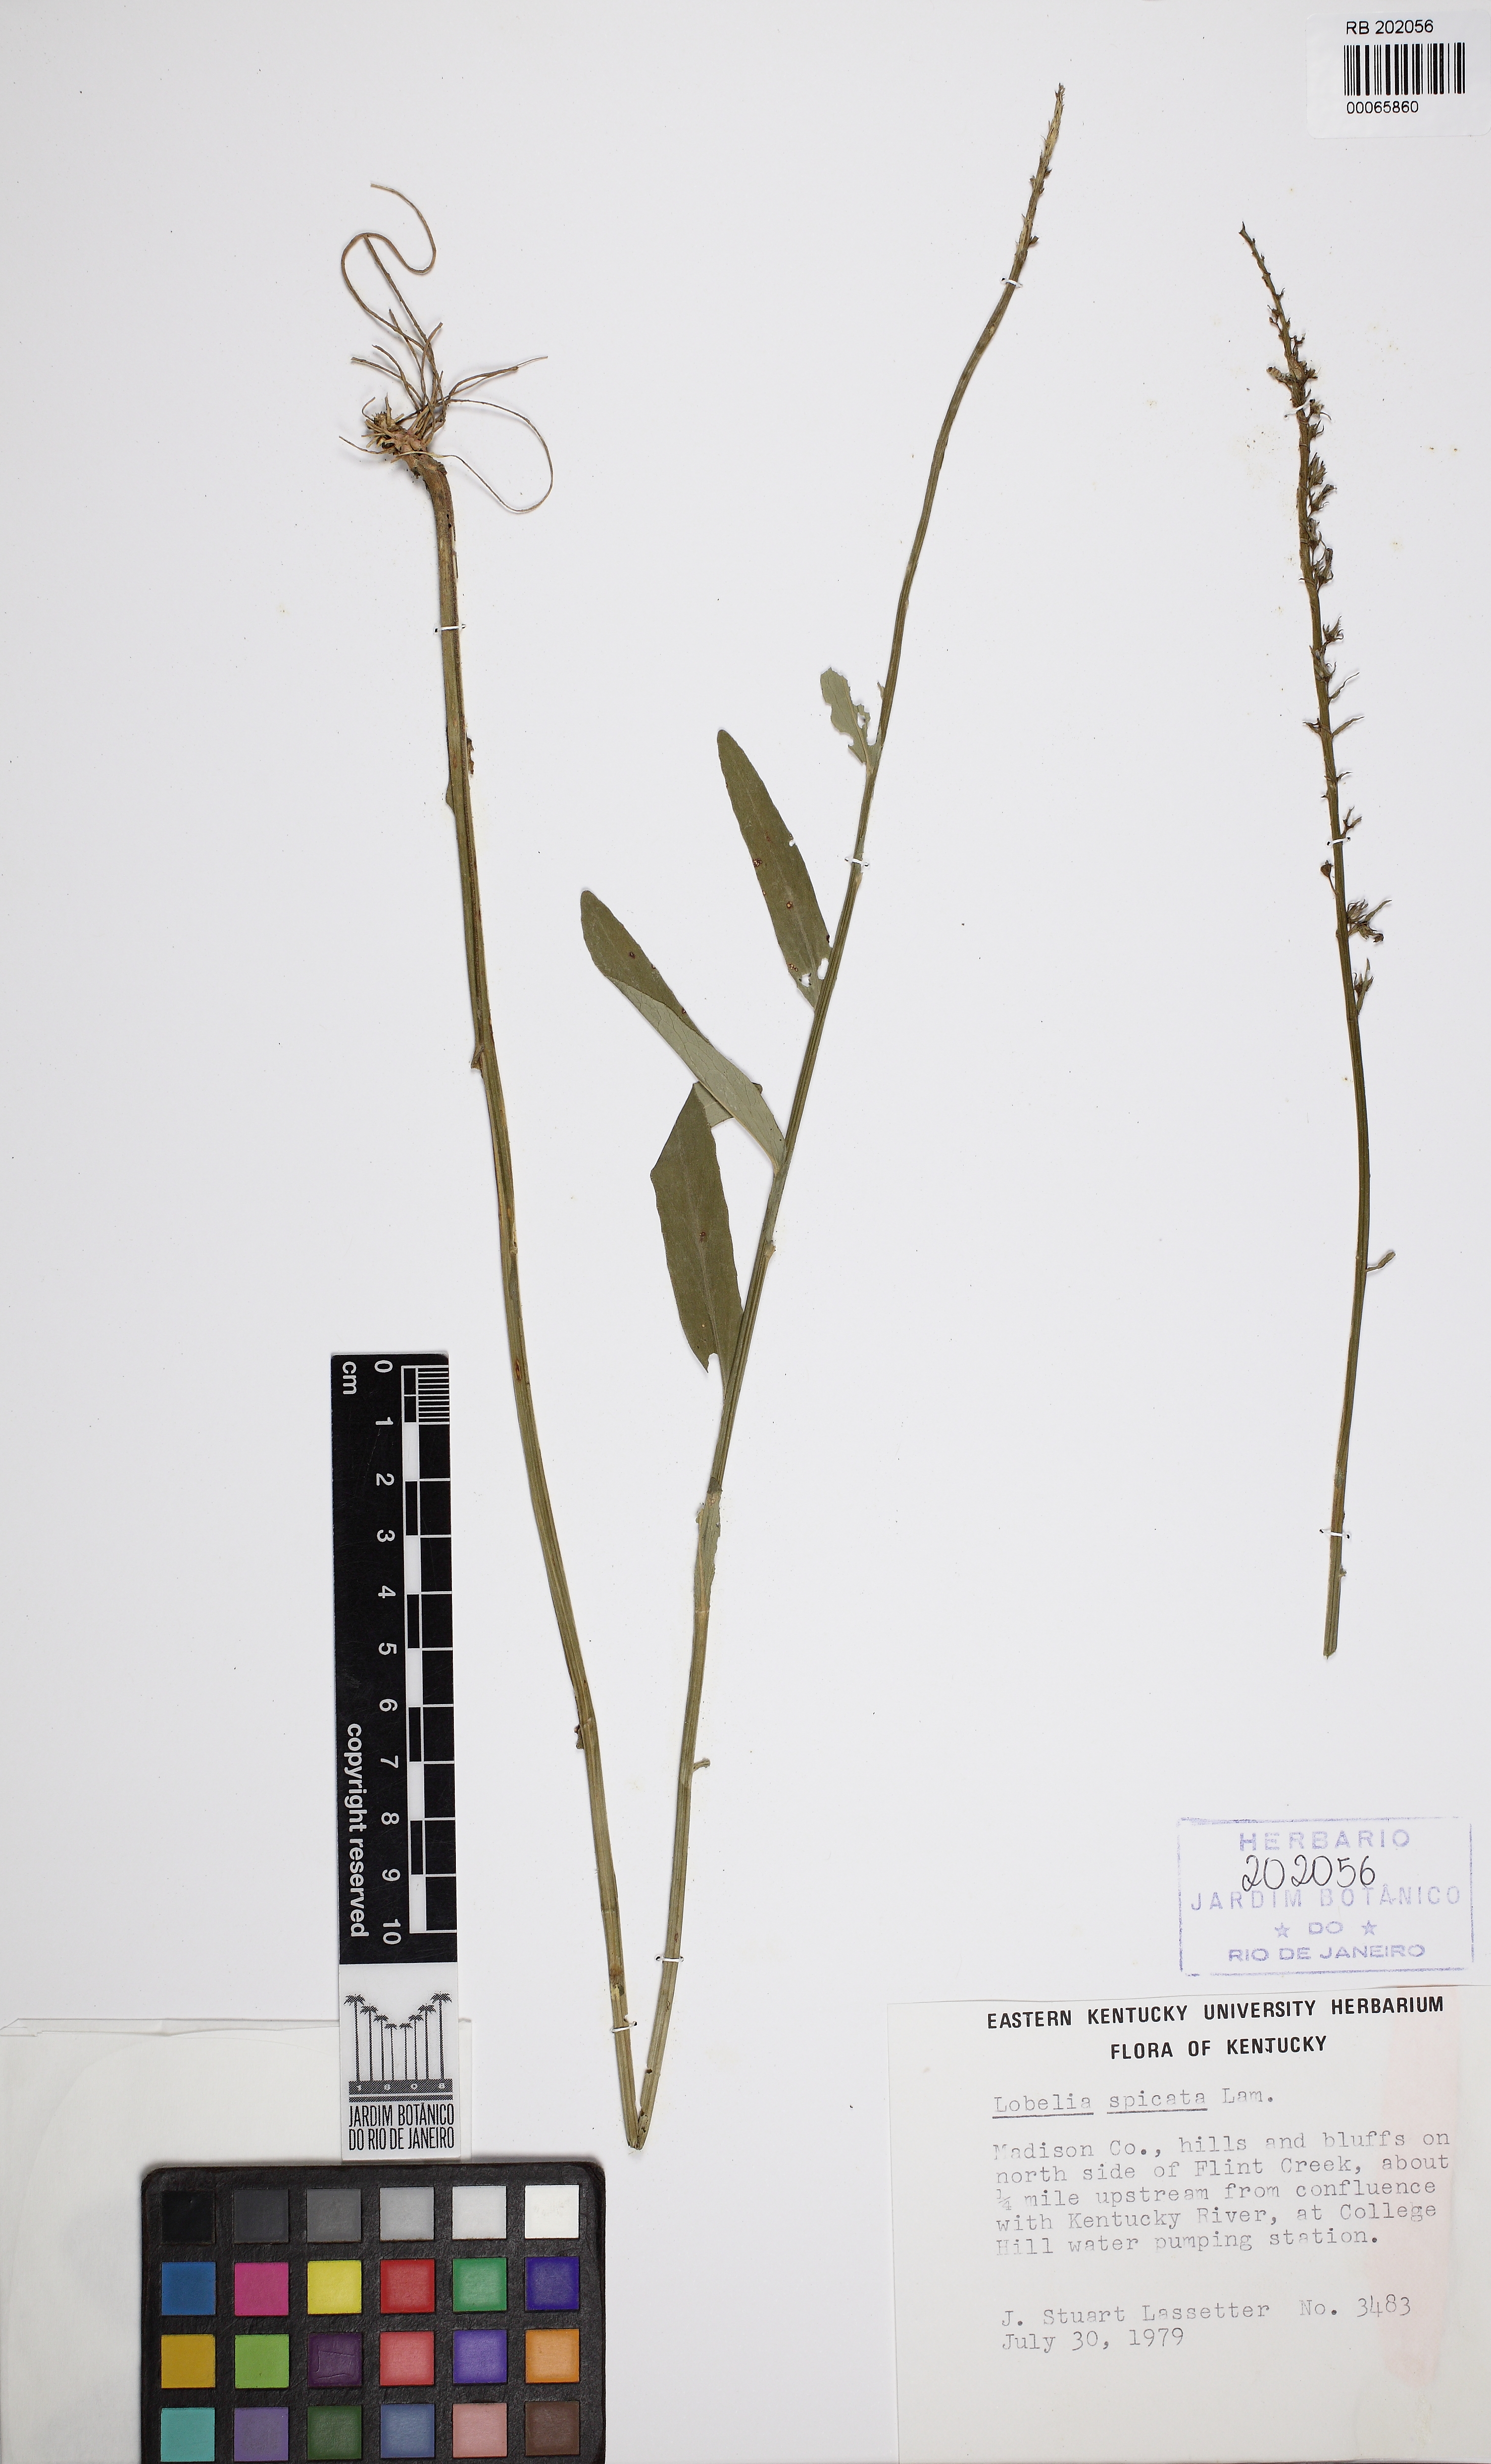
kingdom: Plantae
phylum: Tracheophyta
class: Magnoliopsida
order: Asterales
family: Campanulaceae
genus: Lobelia
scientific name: Lobelia spicata
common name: Pale-spike lobelia
